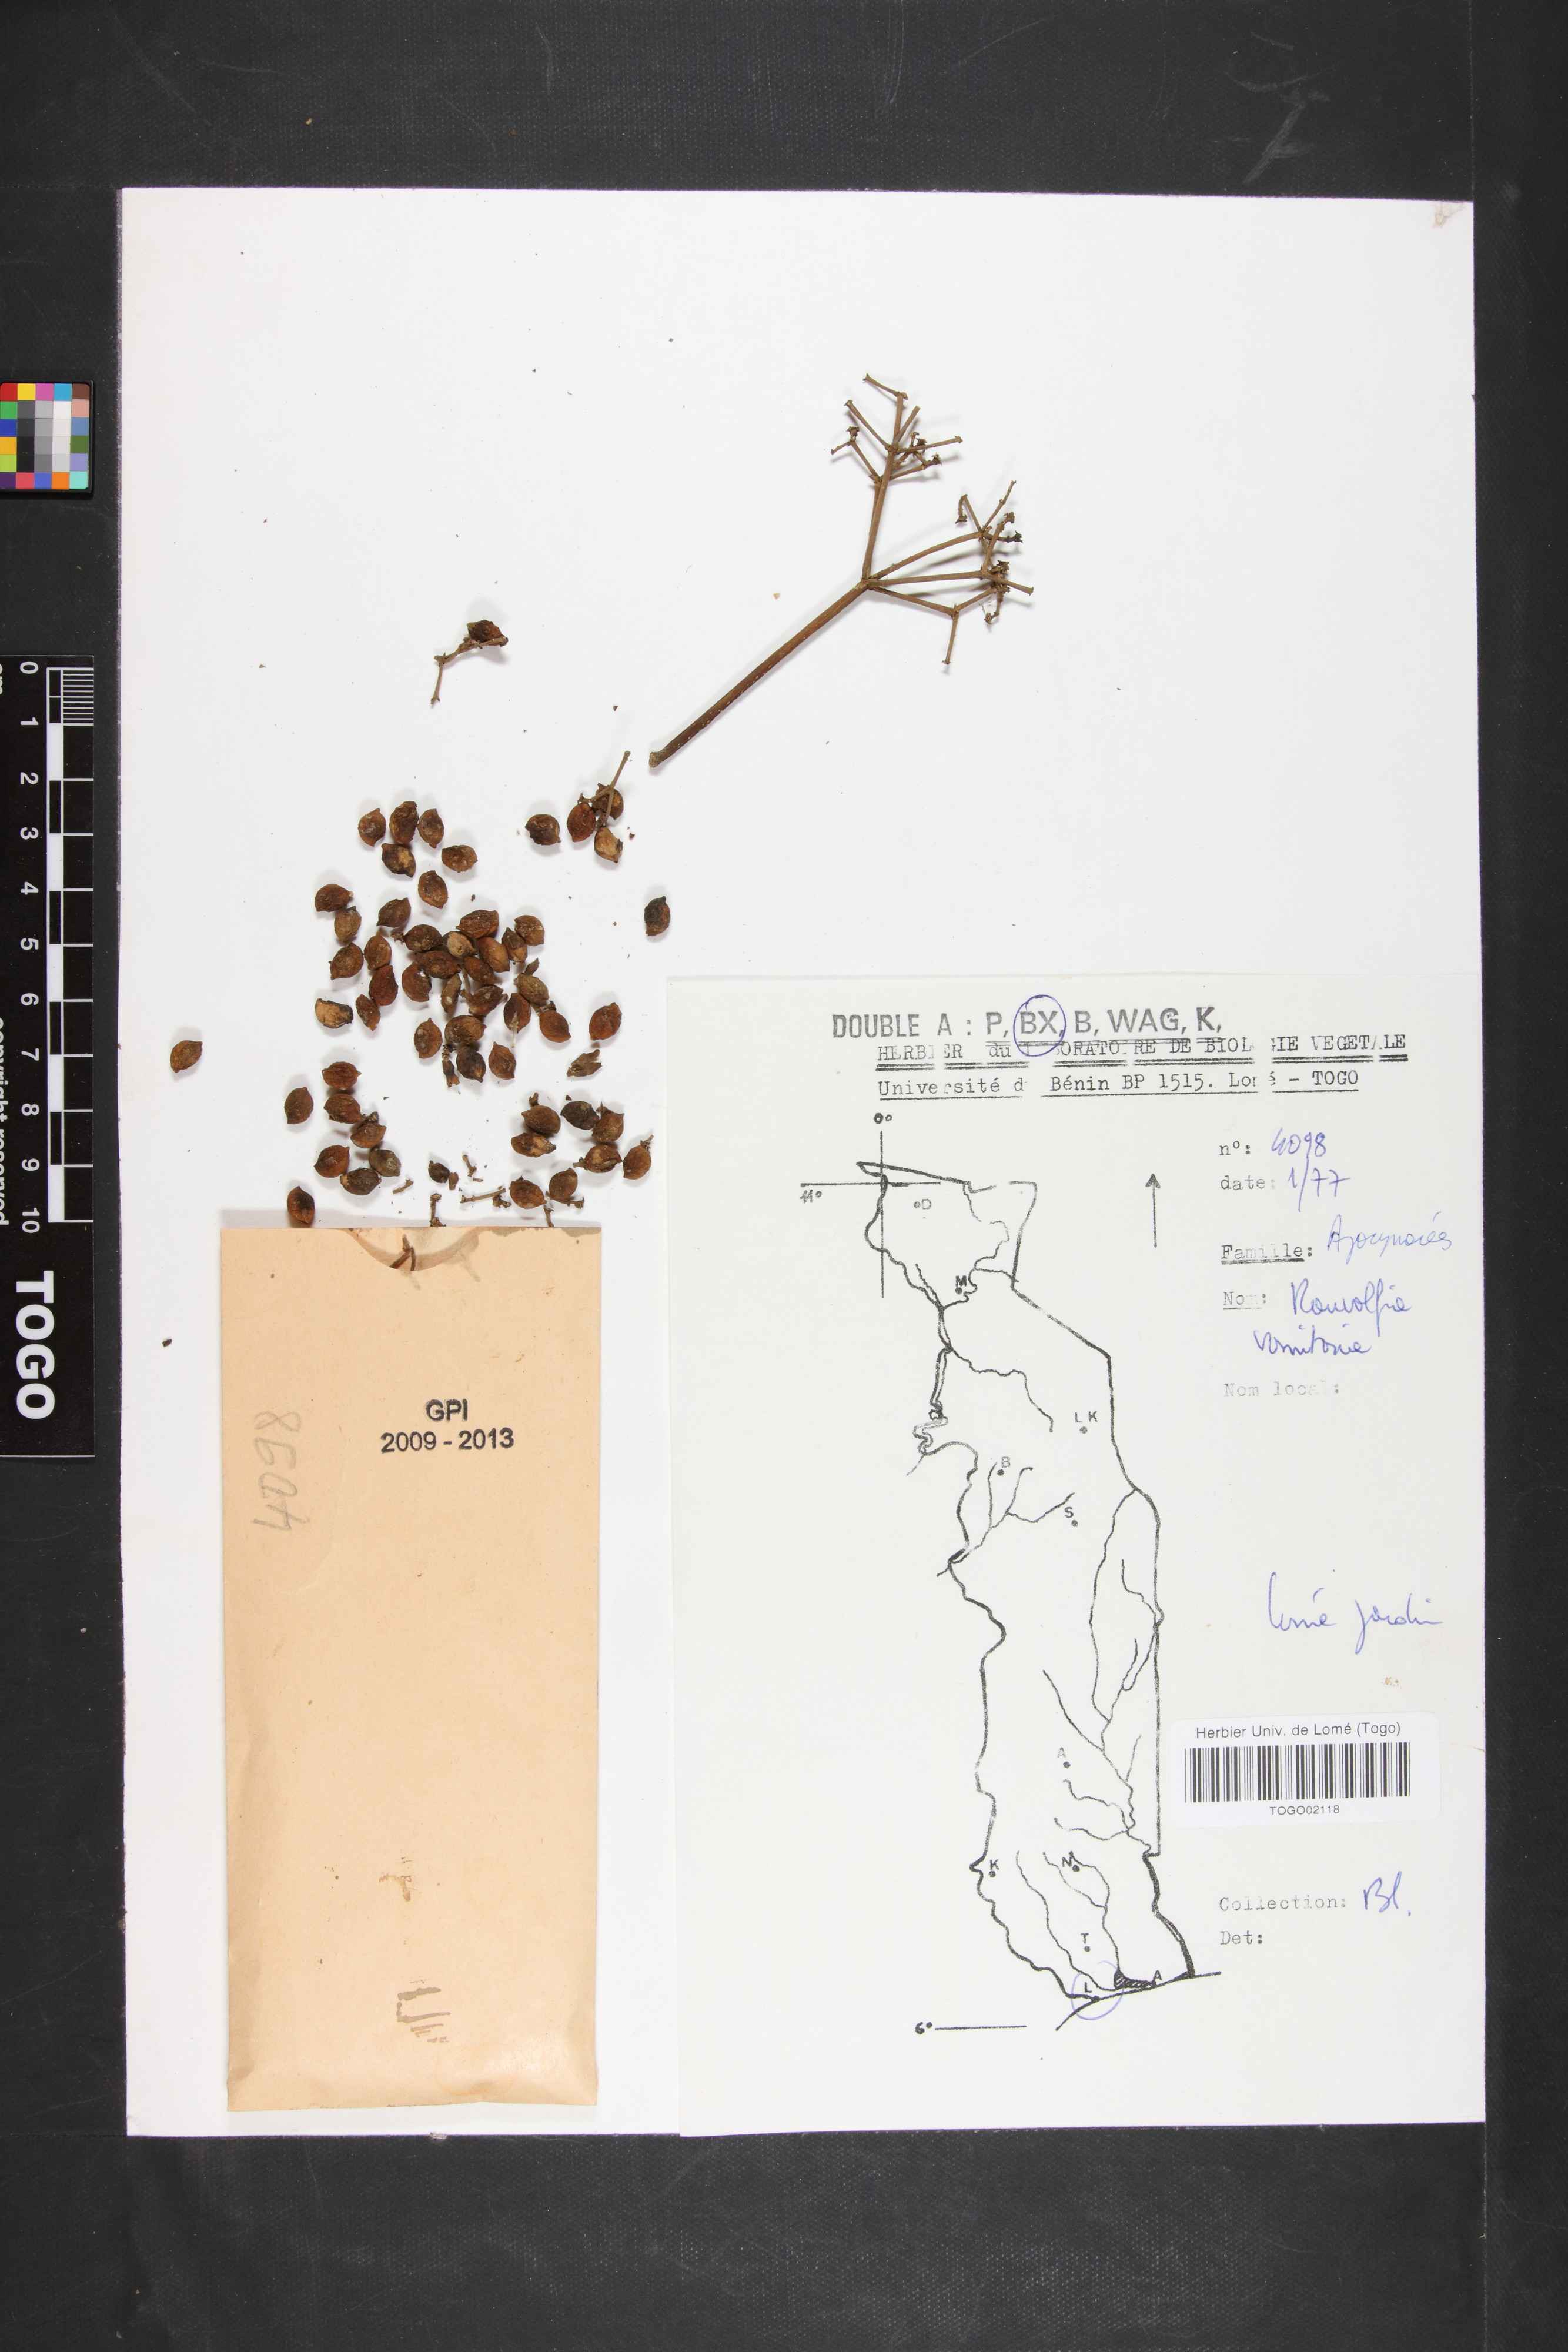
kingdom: Plantae
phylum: Tracheophyta
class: Magnoliopsida
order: Gentianales
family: Apocynaceae
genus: Rauvolfia
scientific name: Rauvolfia vomitoria
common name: Poison devil's-pepper
